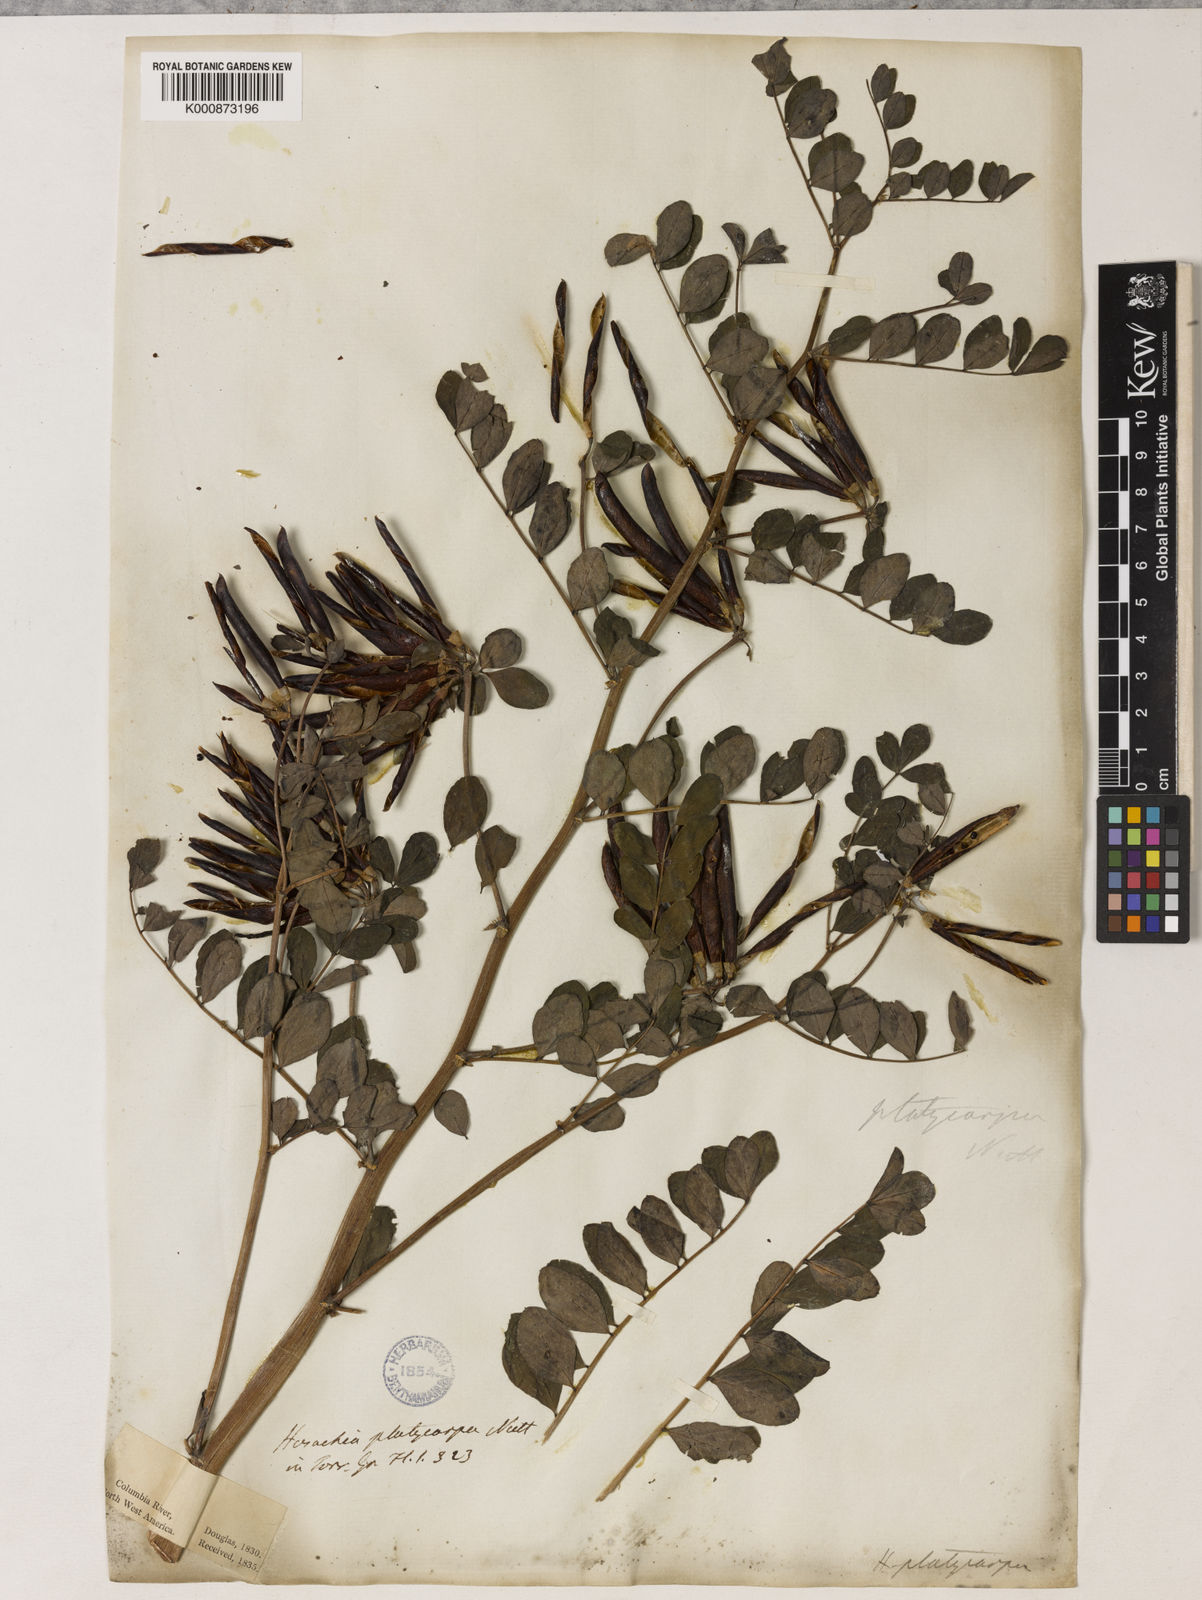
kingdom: Plantae
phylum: Tracheophyta
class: Magnoliopsida
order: Fabales
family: Fabaceae
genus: Hosackia
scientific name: Hosackia crassifolia
